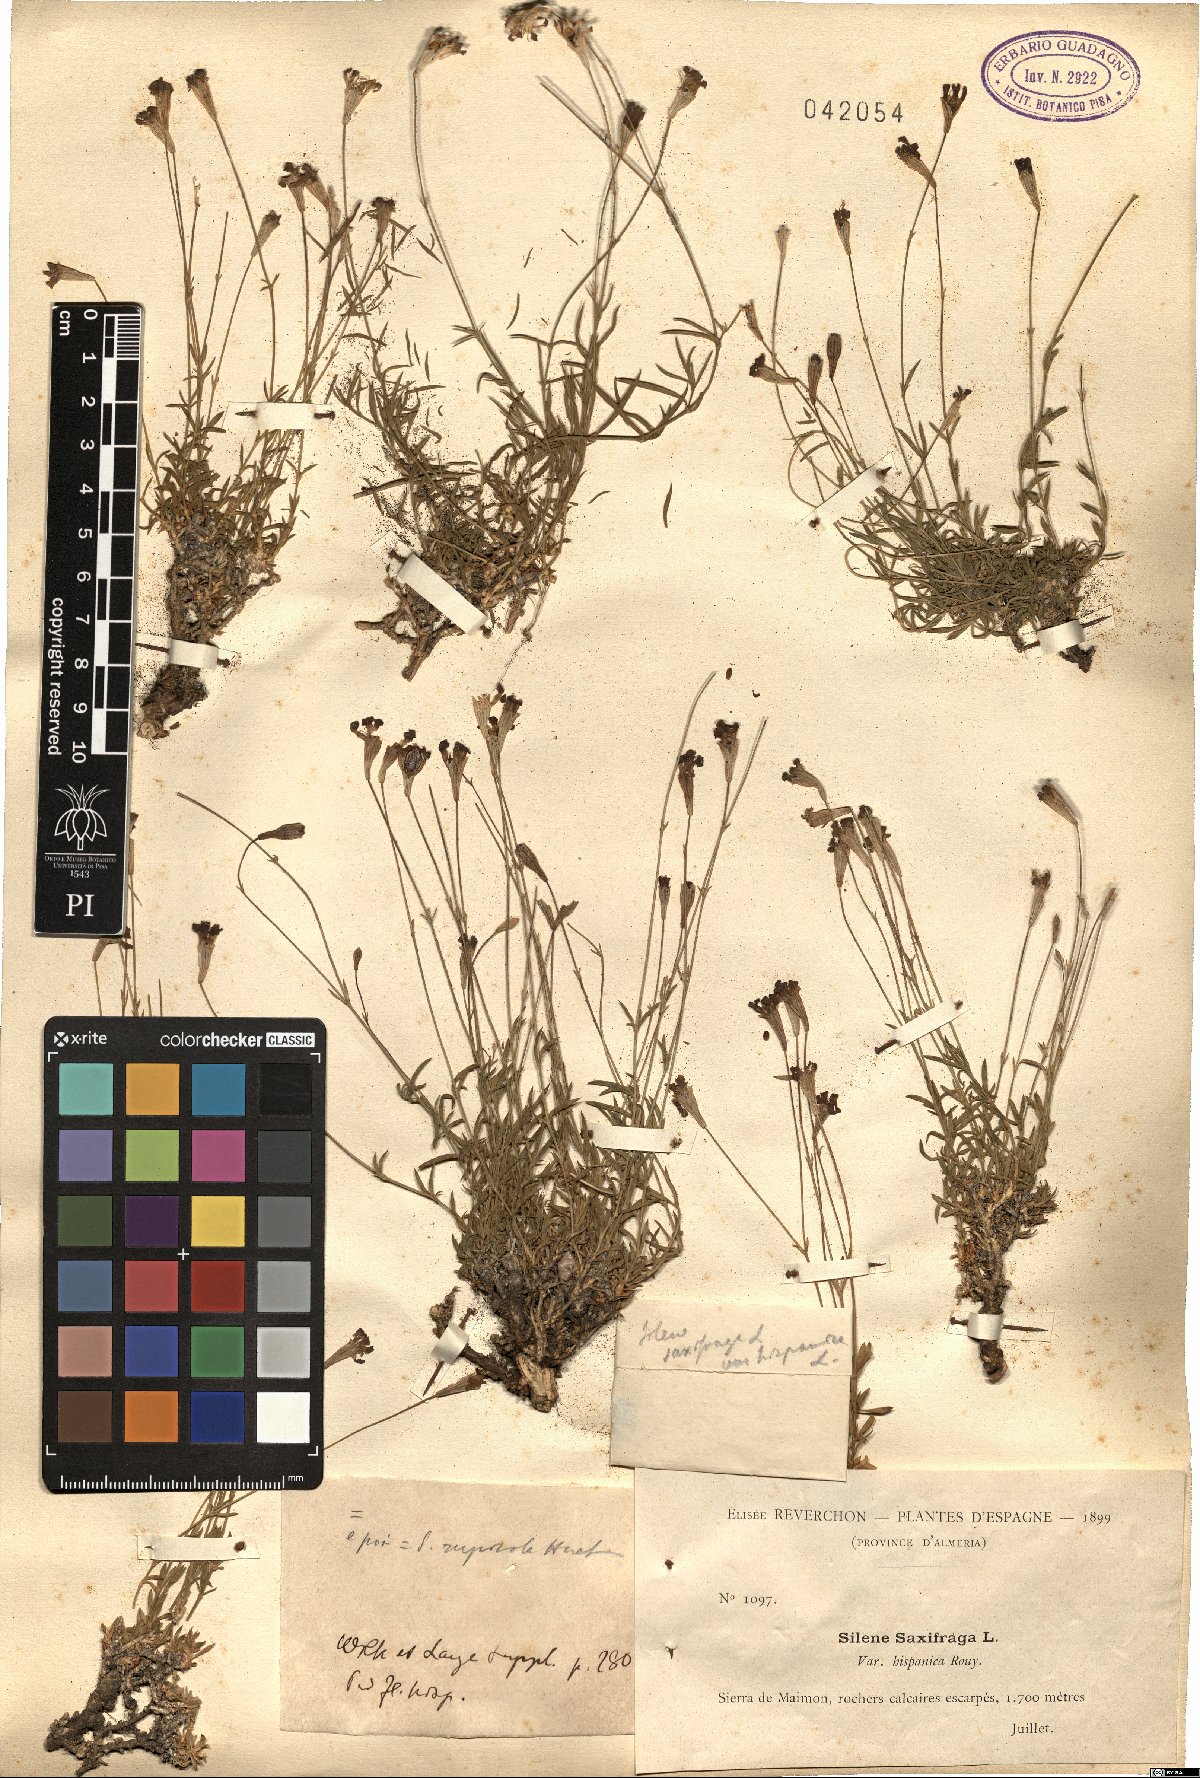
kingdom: Plantae
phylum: Tracheophyta
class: Magnoliopsida
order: Caryophyllales
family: Caryophyllaceae
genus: Silene
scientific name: Silene saxifraga
